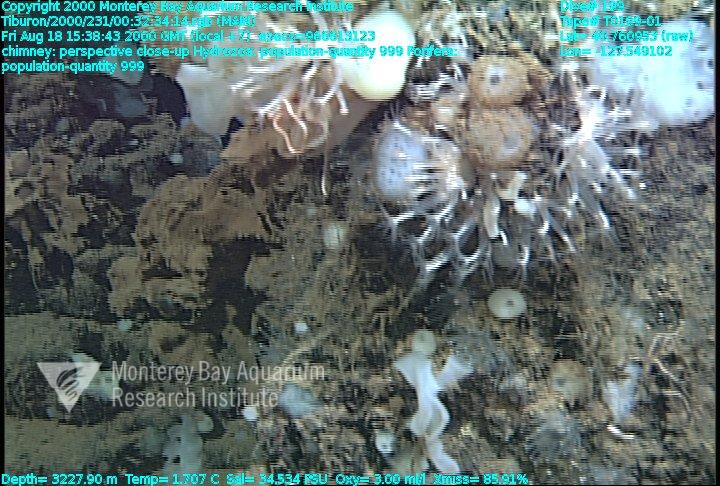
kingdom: Animalia
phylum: Porifera
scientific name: Porifera
